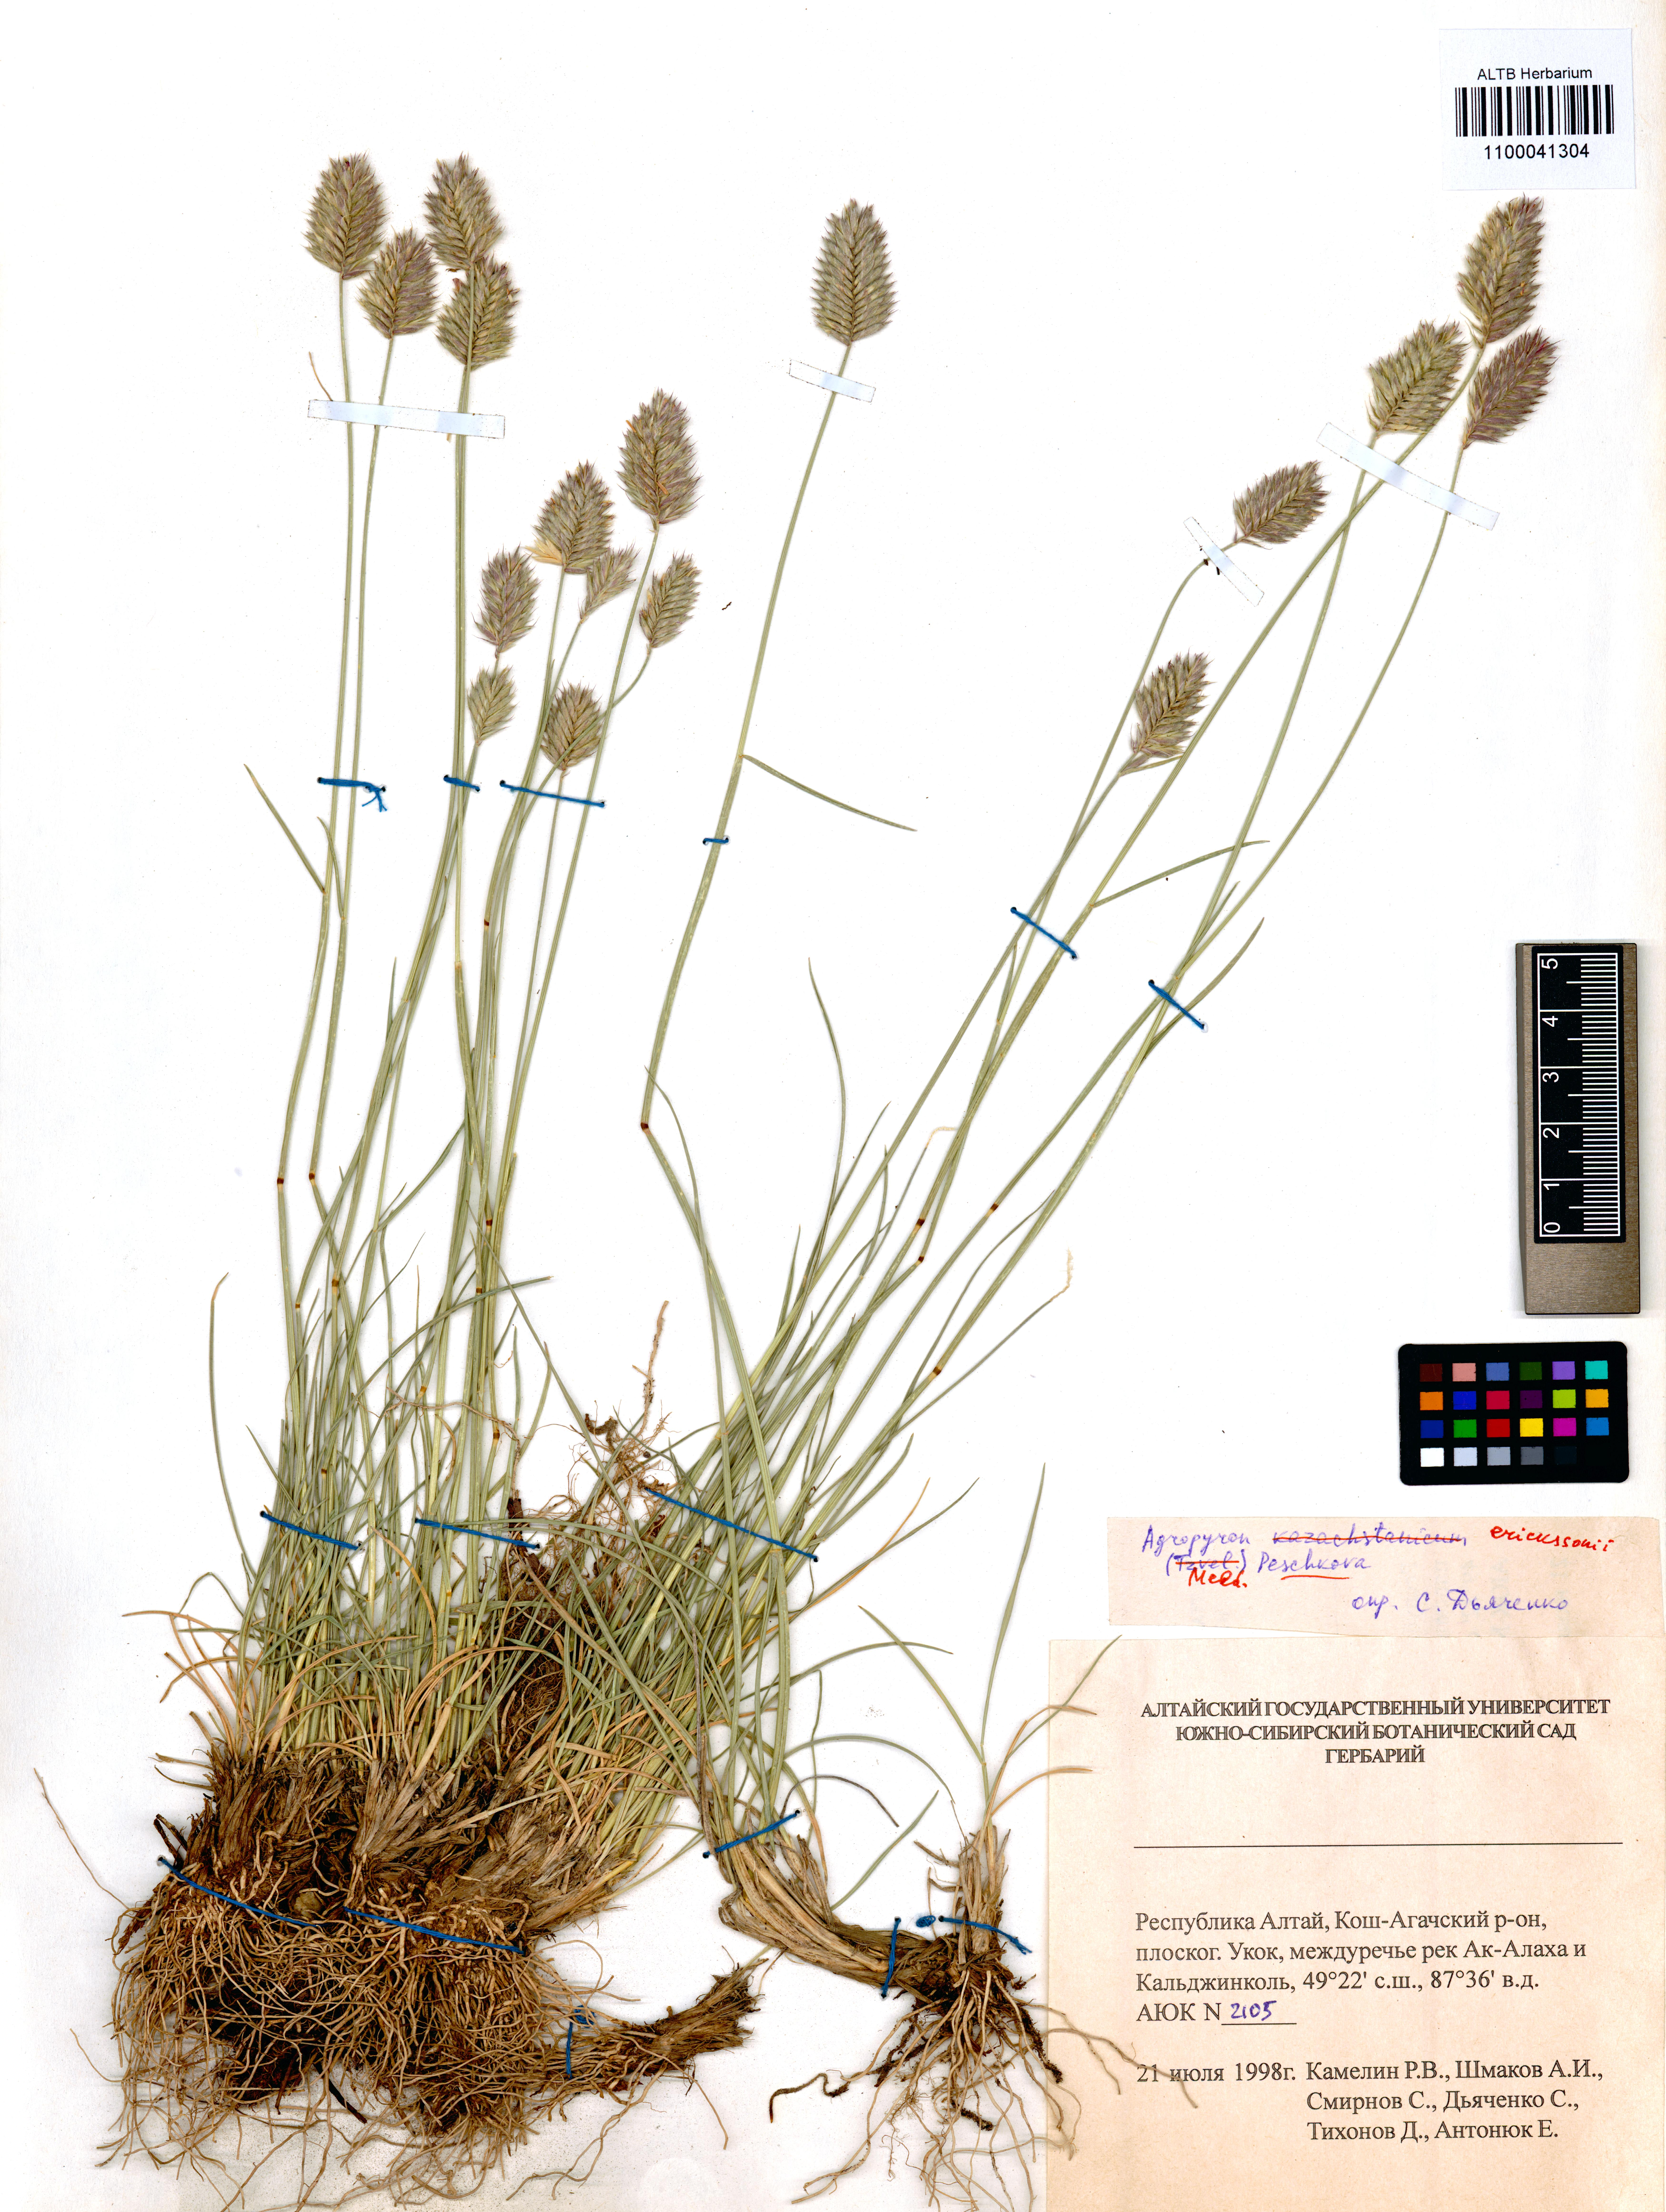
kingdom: Plantae
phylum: Tracheophyta
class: Liliopsida
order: Poales
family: Poaceae
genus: Agropyron
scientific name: Agropyron cristatum
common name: Crested wheatgrass
